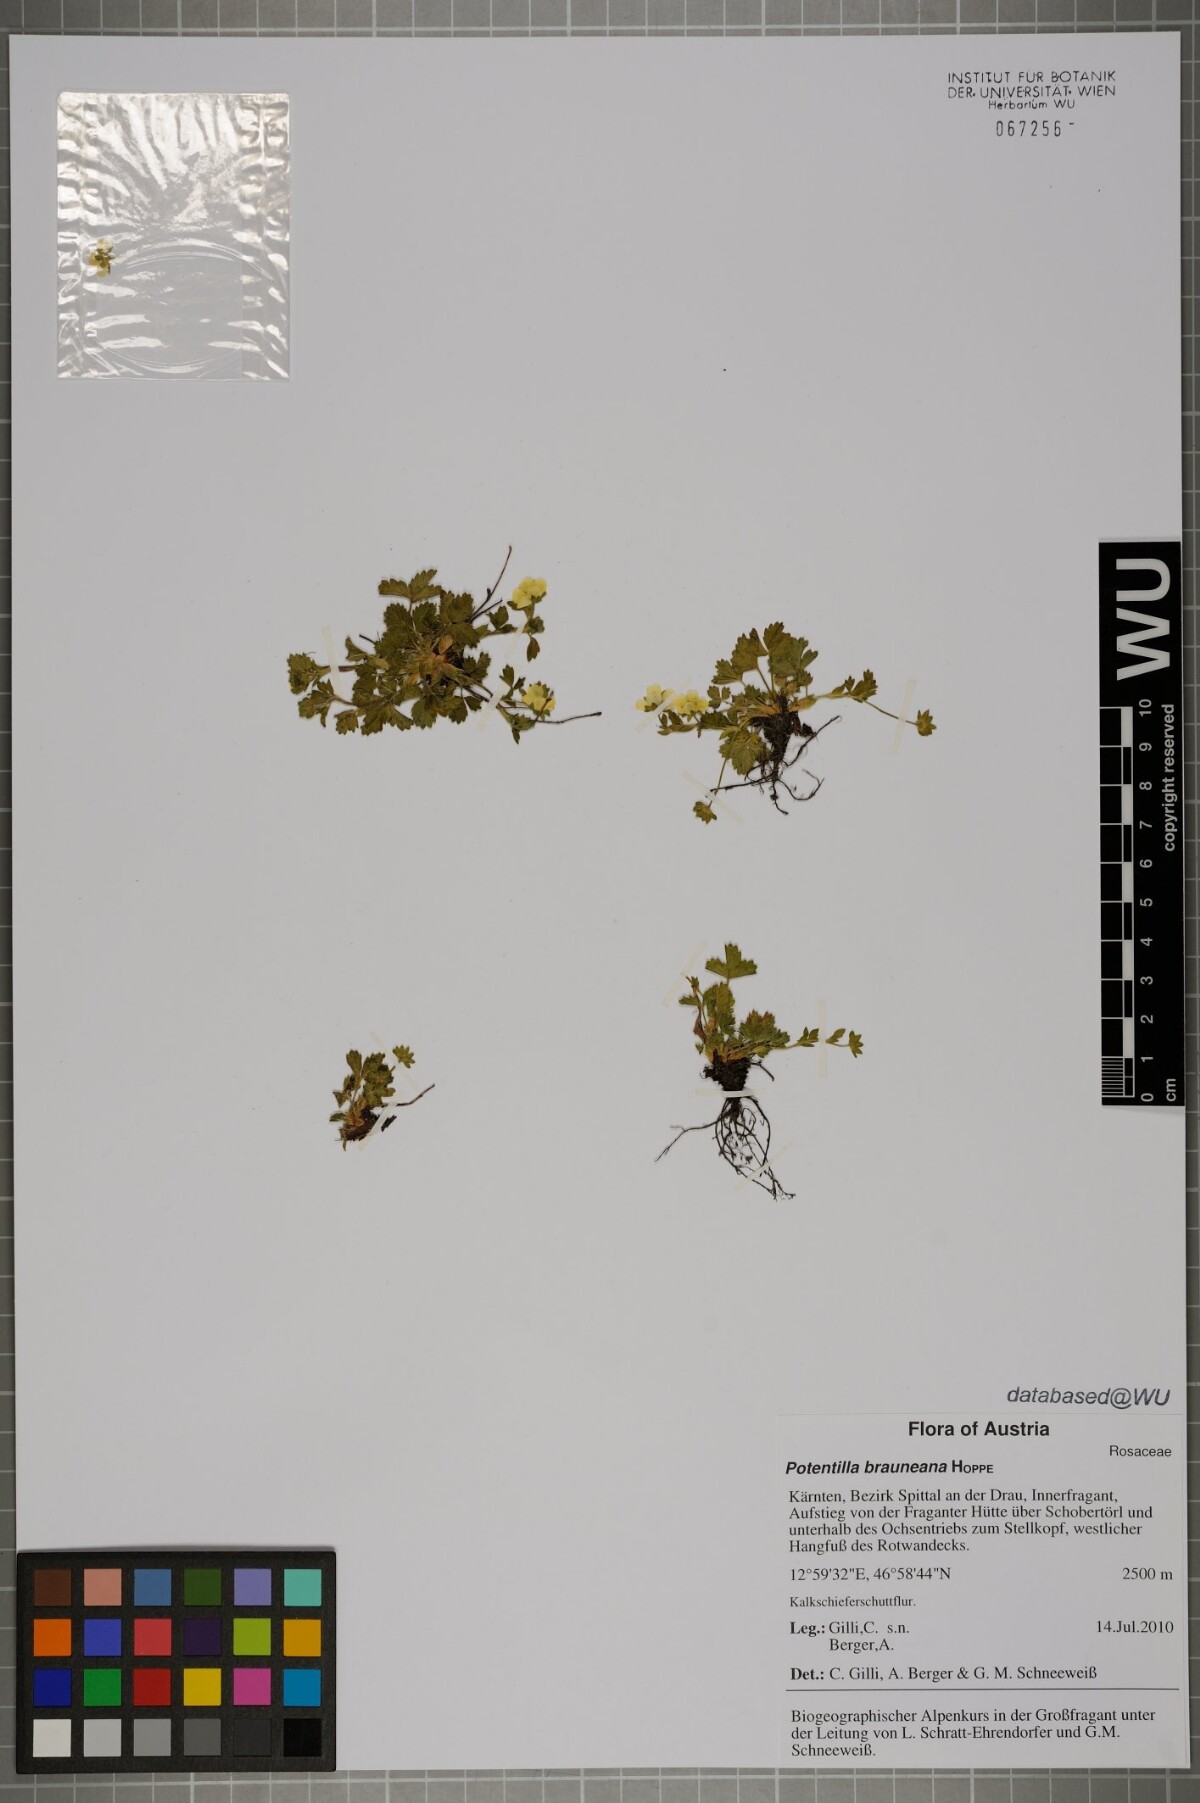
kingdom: Plantae
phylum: Tracheophyta
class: Magnoliopsida
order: Rosales
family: Rosaceae
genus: Potentilla
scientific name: Potentilla brauneana
